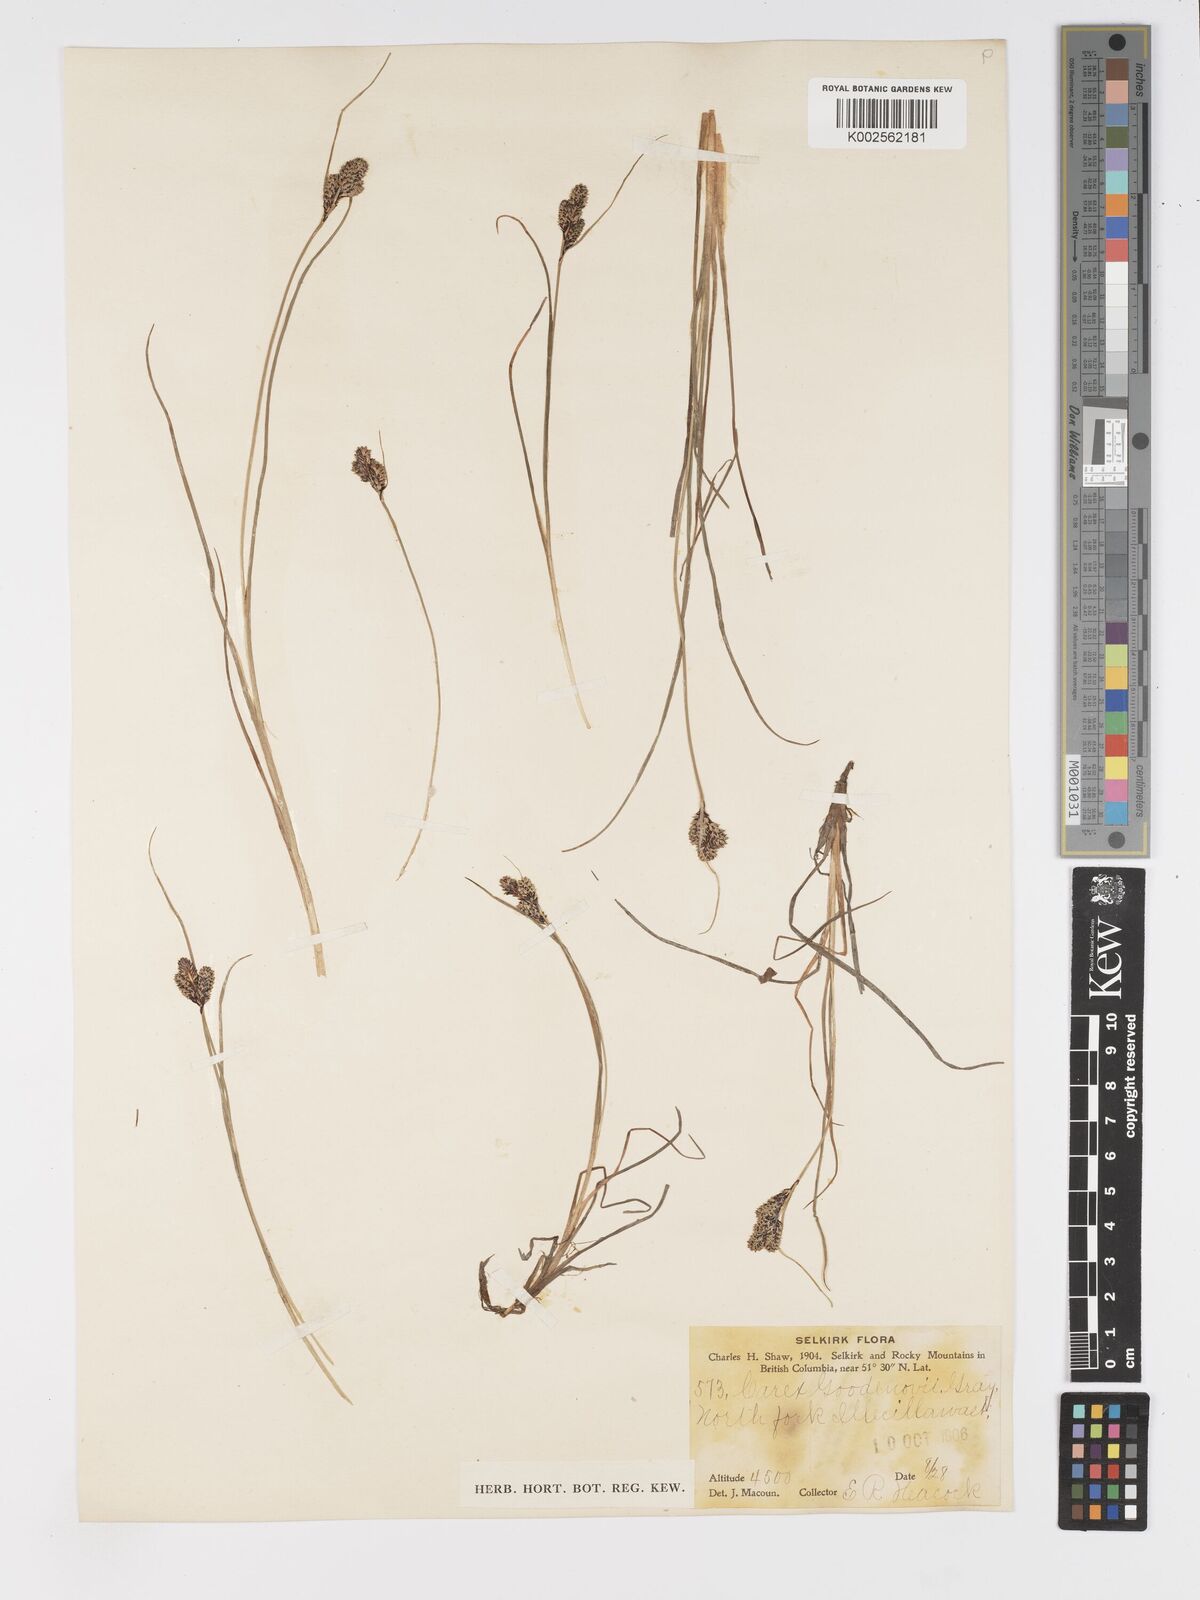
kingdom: Plantae
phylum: Tracheophyta
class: Liliopsida
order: Poales
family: Cyperaceae
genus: Carex
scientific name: Carex nigra
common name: Common sedge
